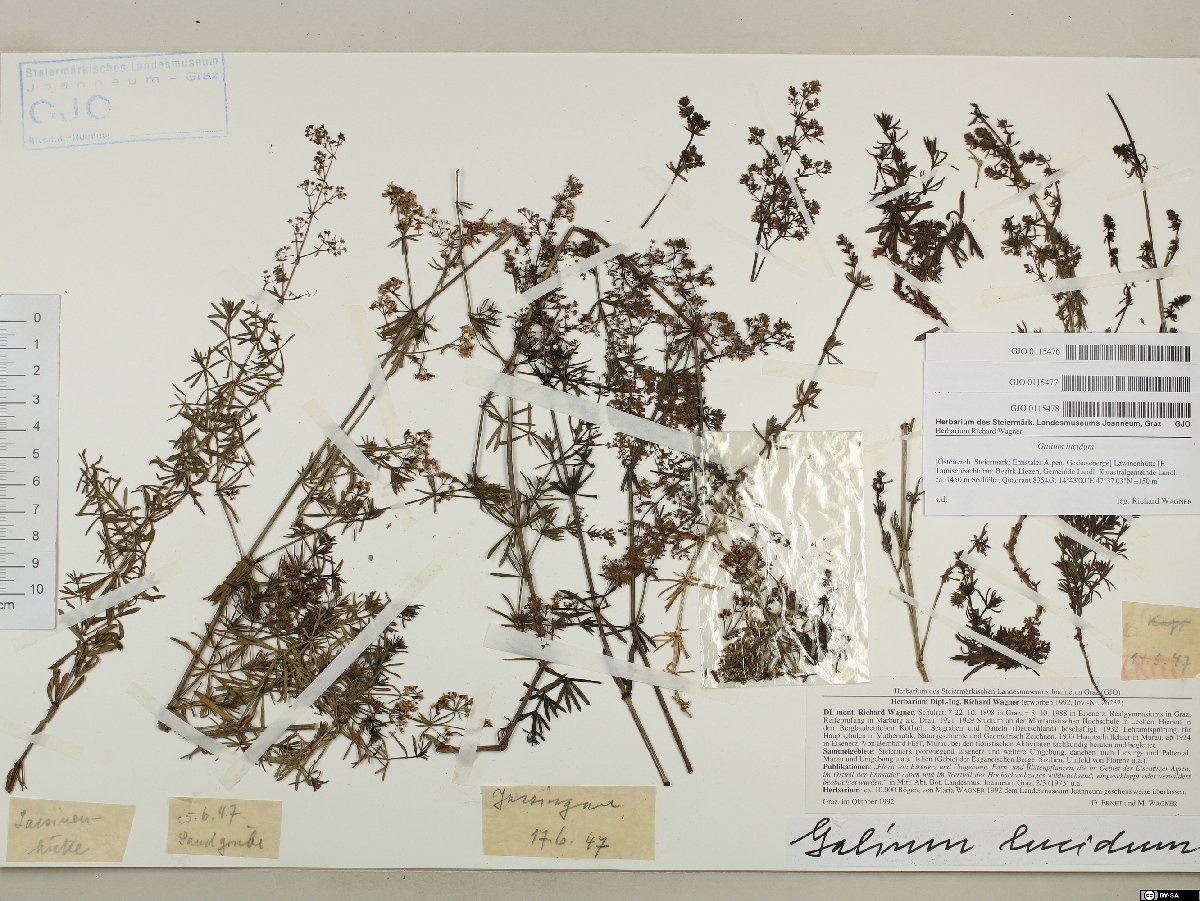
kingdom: Plantae
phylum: Tracheophyta
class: Magnoliopsida
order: Gentianales
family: Rubiaceae
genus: Galium
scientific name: Galium lucidum
